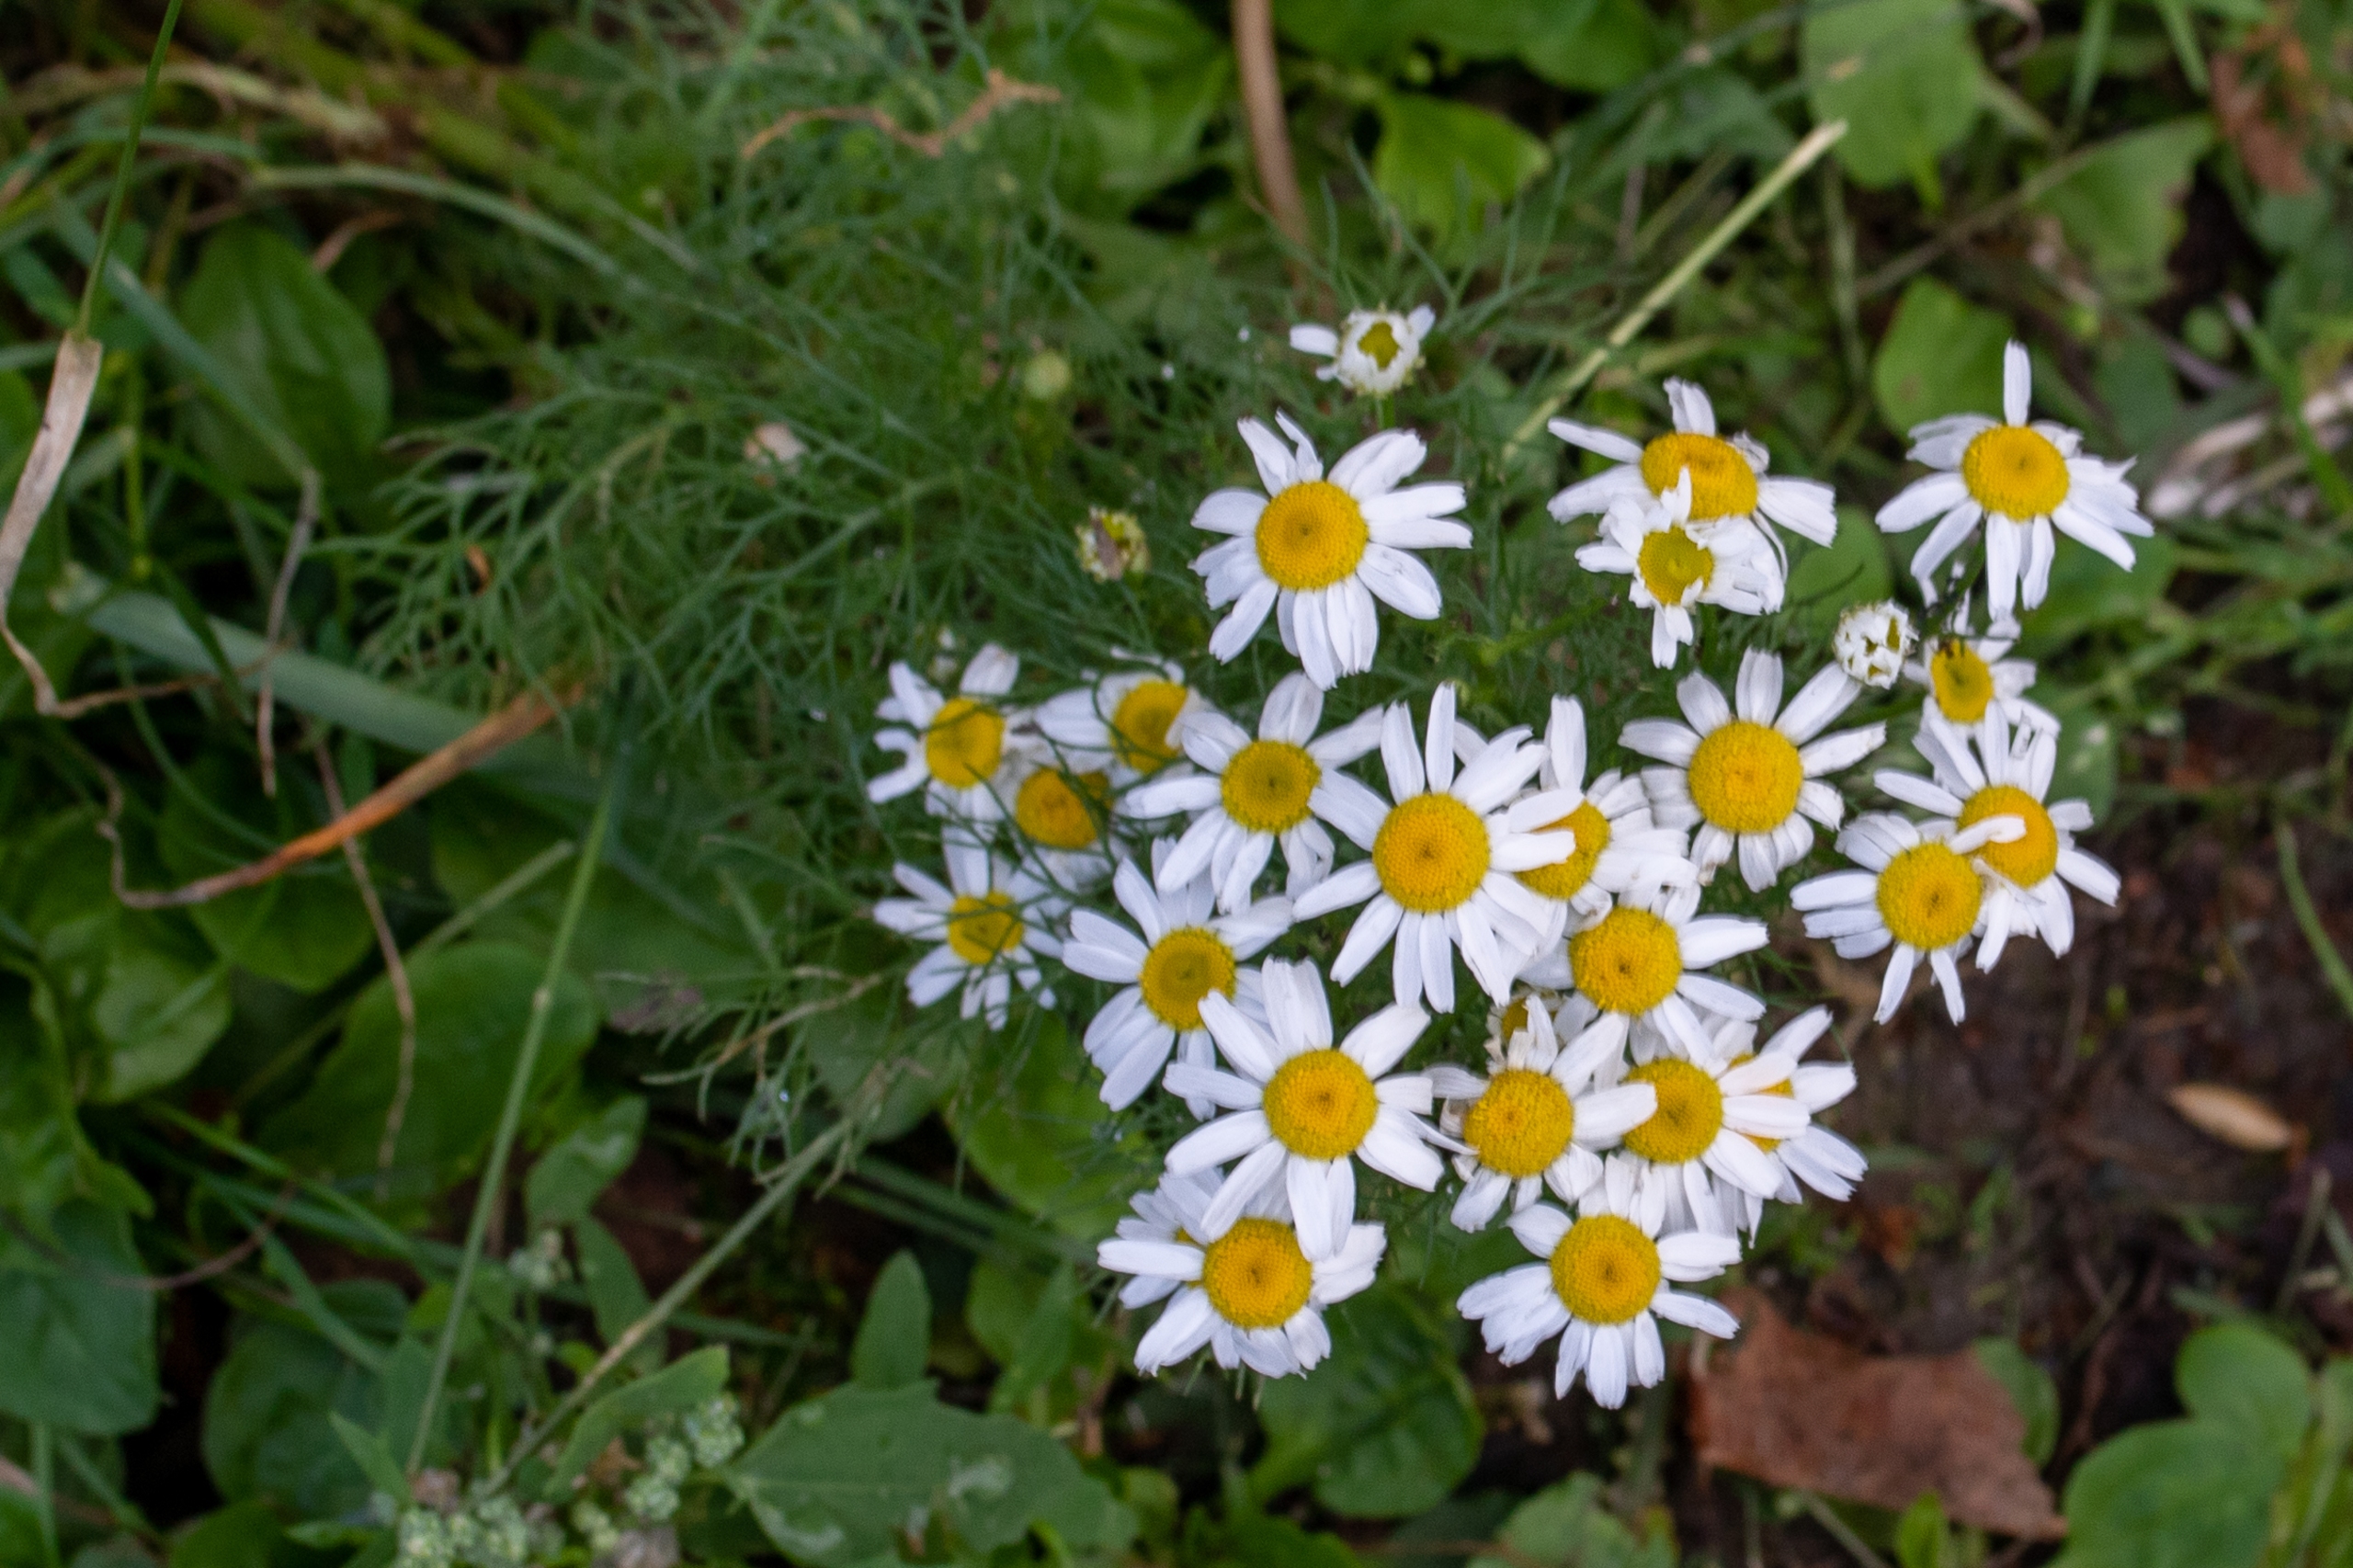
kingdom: Plantae
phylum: Tracheophyta
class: Magnoliopsida
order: Asterales
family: Asteraceae
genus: Tripleurospermum
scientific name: Tripleurospermum inodorum
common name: Lugtløs kamille
